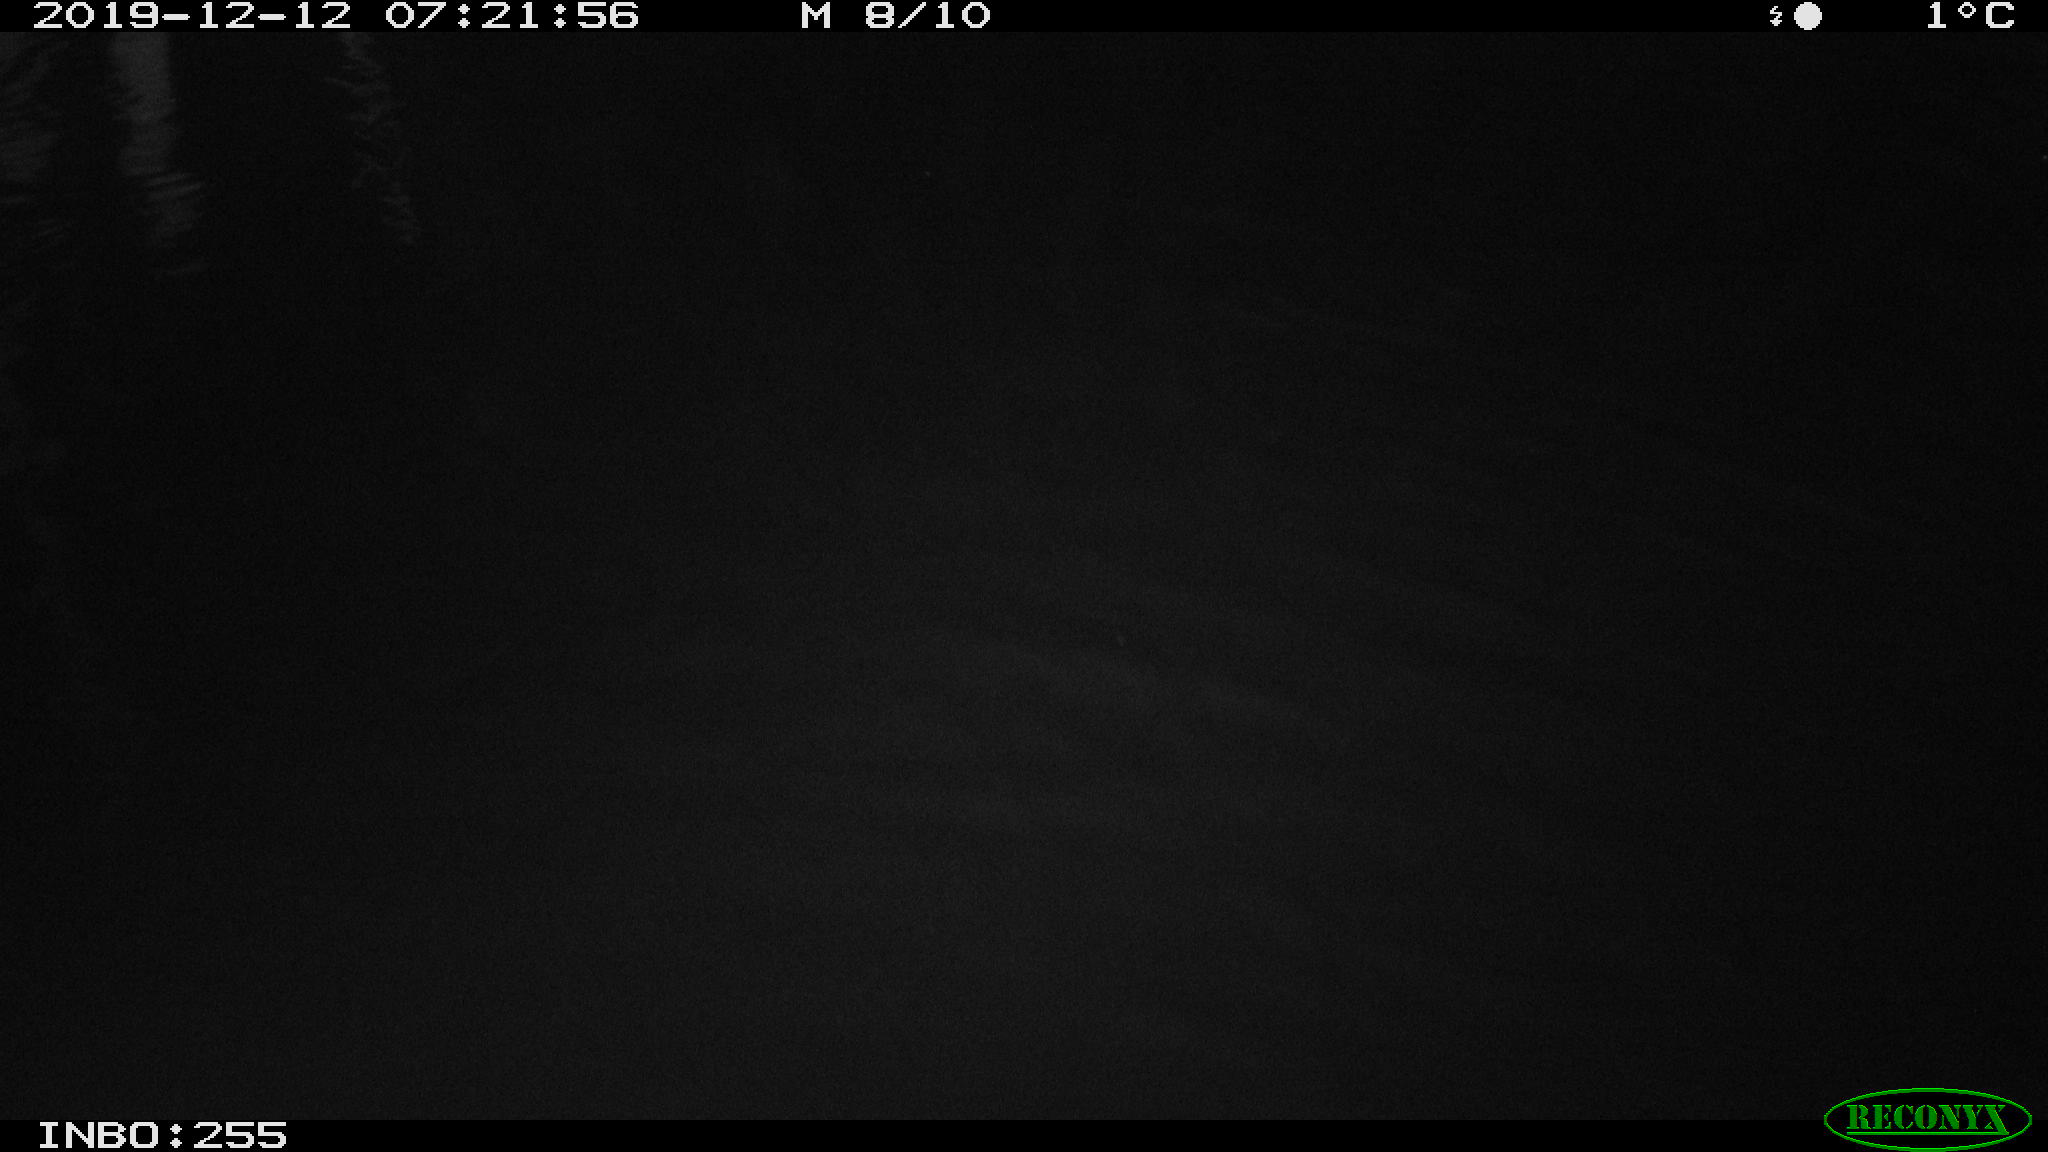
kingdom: Animalia
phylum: Chordata
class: Aves
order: Anseriformes
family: Anatidae
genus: Anas
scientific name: Anas platyrhynchos
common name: Mallard
